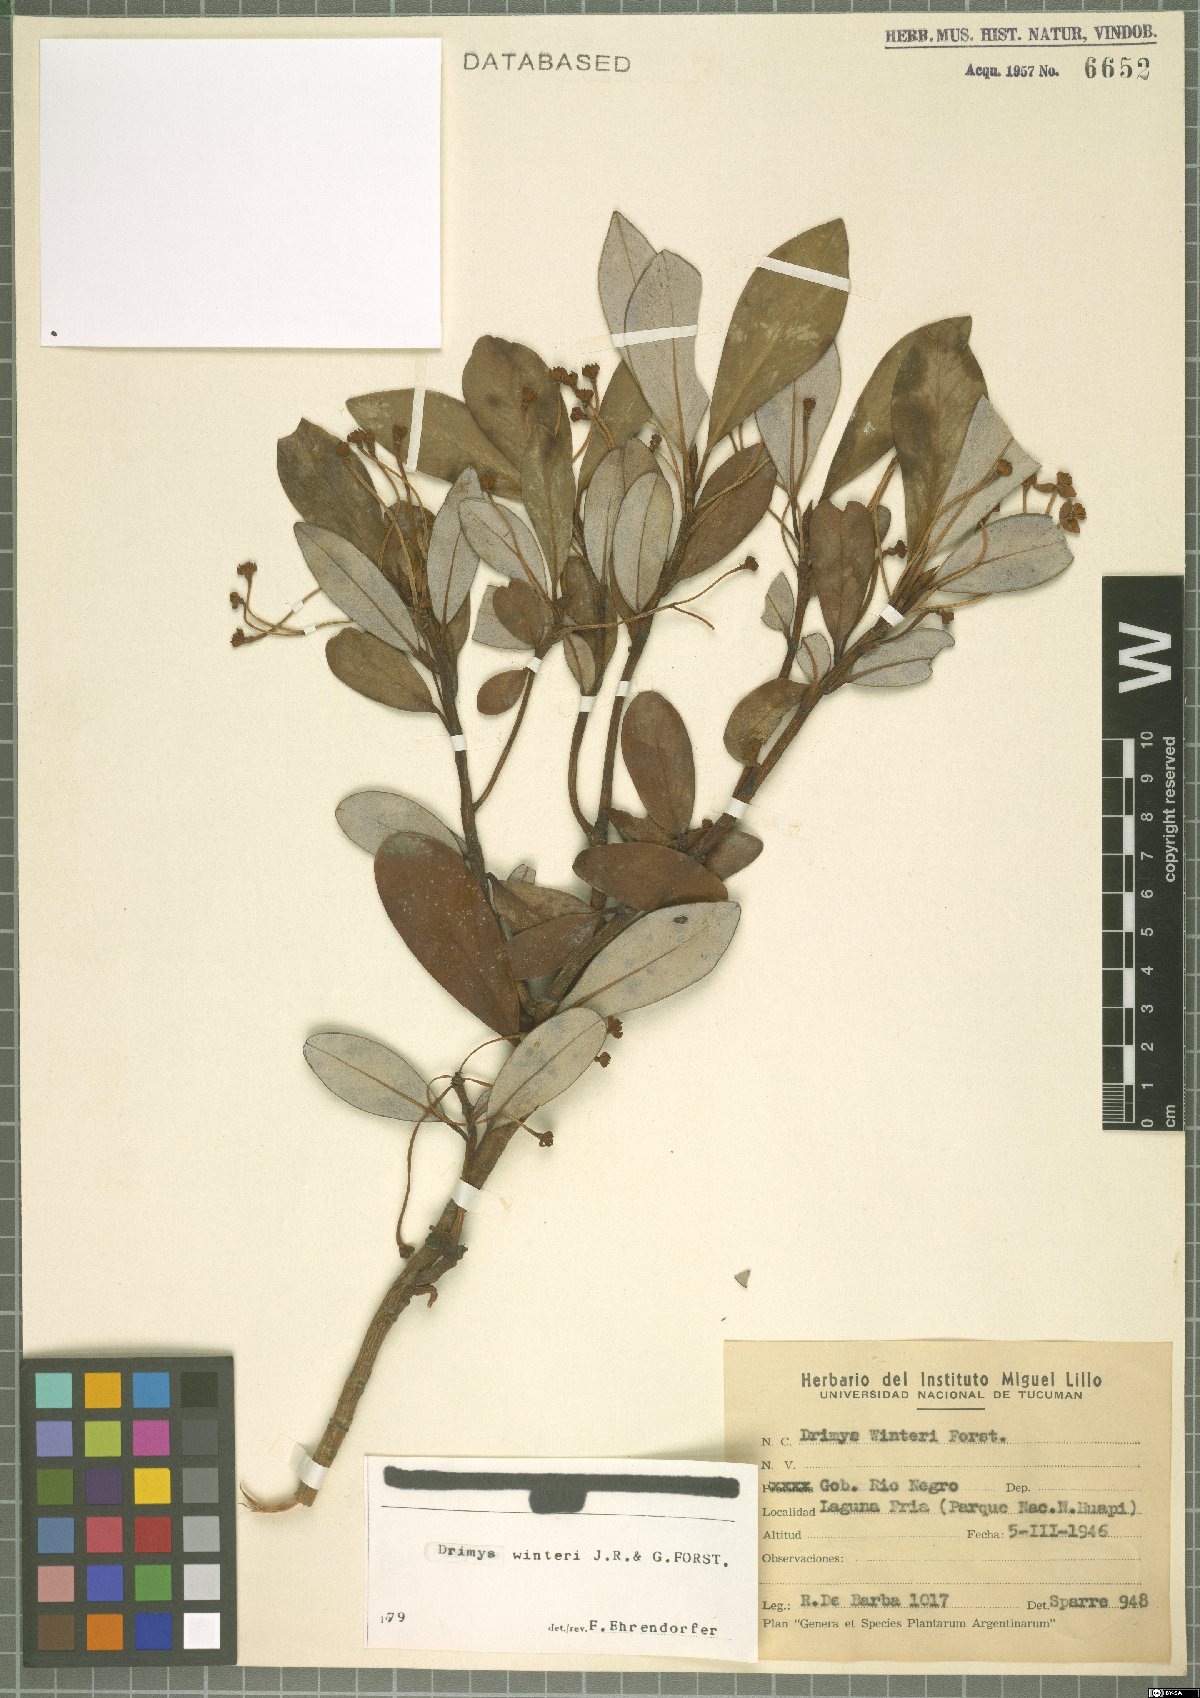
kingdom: Plantae
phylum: Tracheophyta
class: Magnoliopsida
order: Canellales
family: Winteraceae
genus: Drimys
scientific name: Drimys winteri
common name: Winter's-bark
